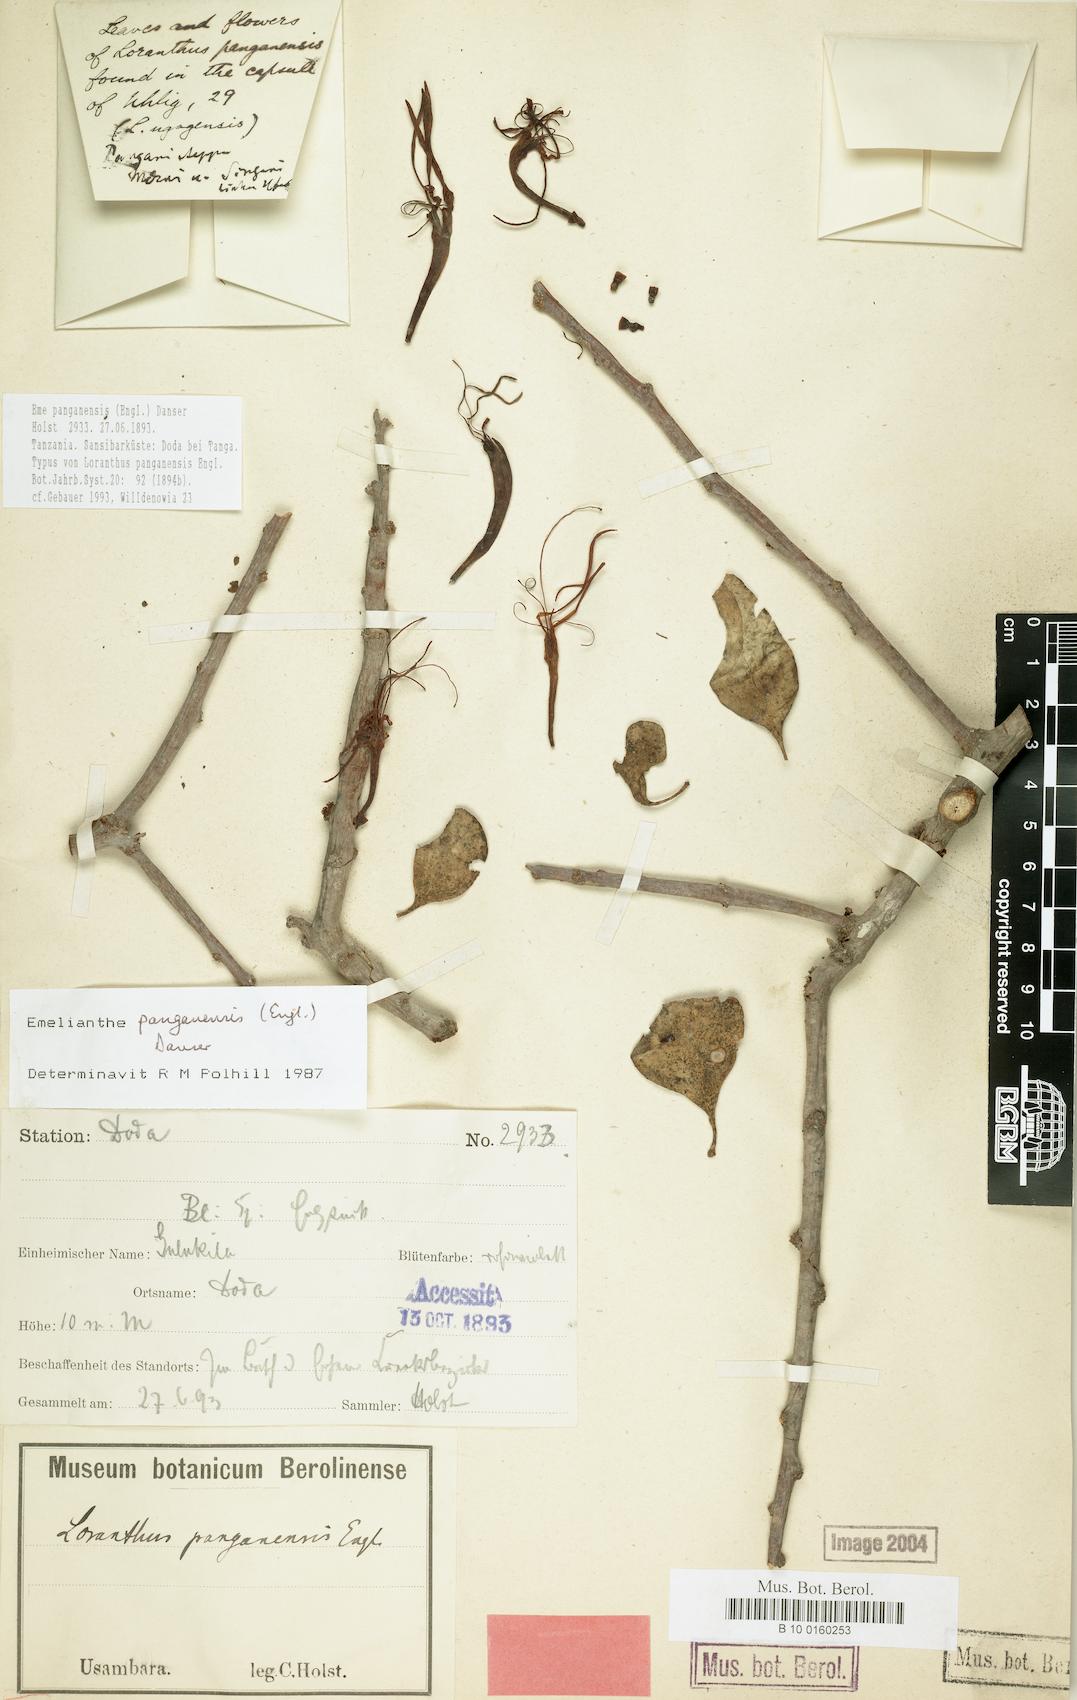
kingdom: Plantae
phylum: Tracheophyta
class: Magnoliopsida
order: Santalales
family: Loranthaceae
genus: Emelianthe
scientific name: Emelianthe panganensis
